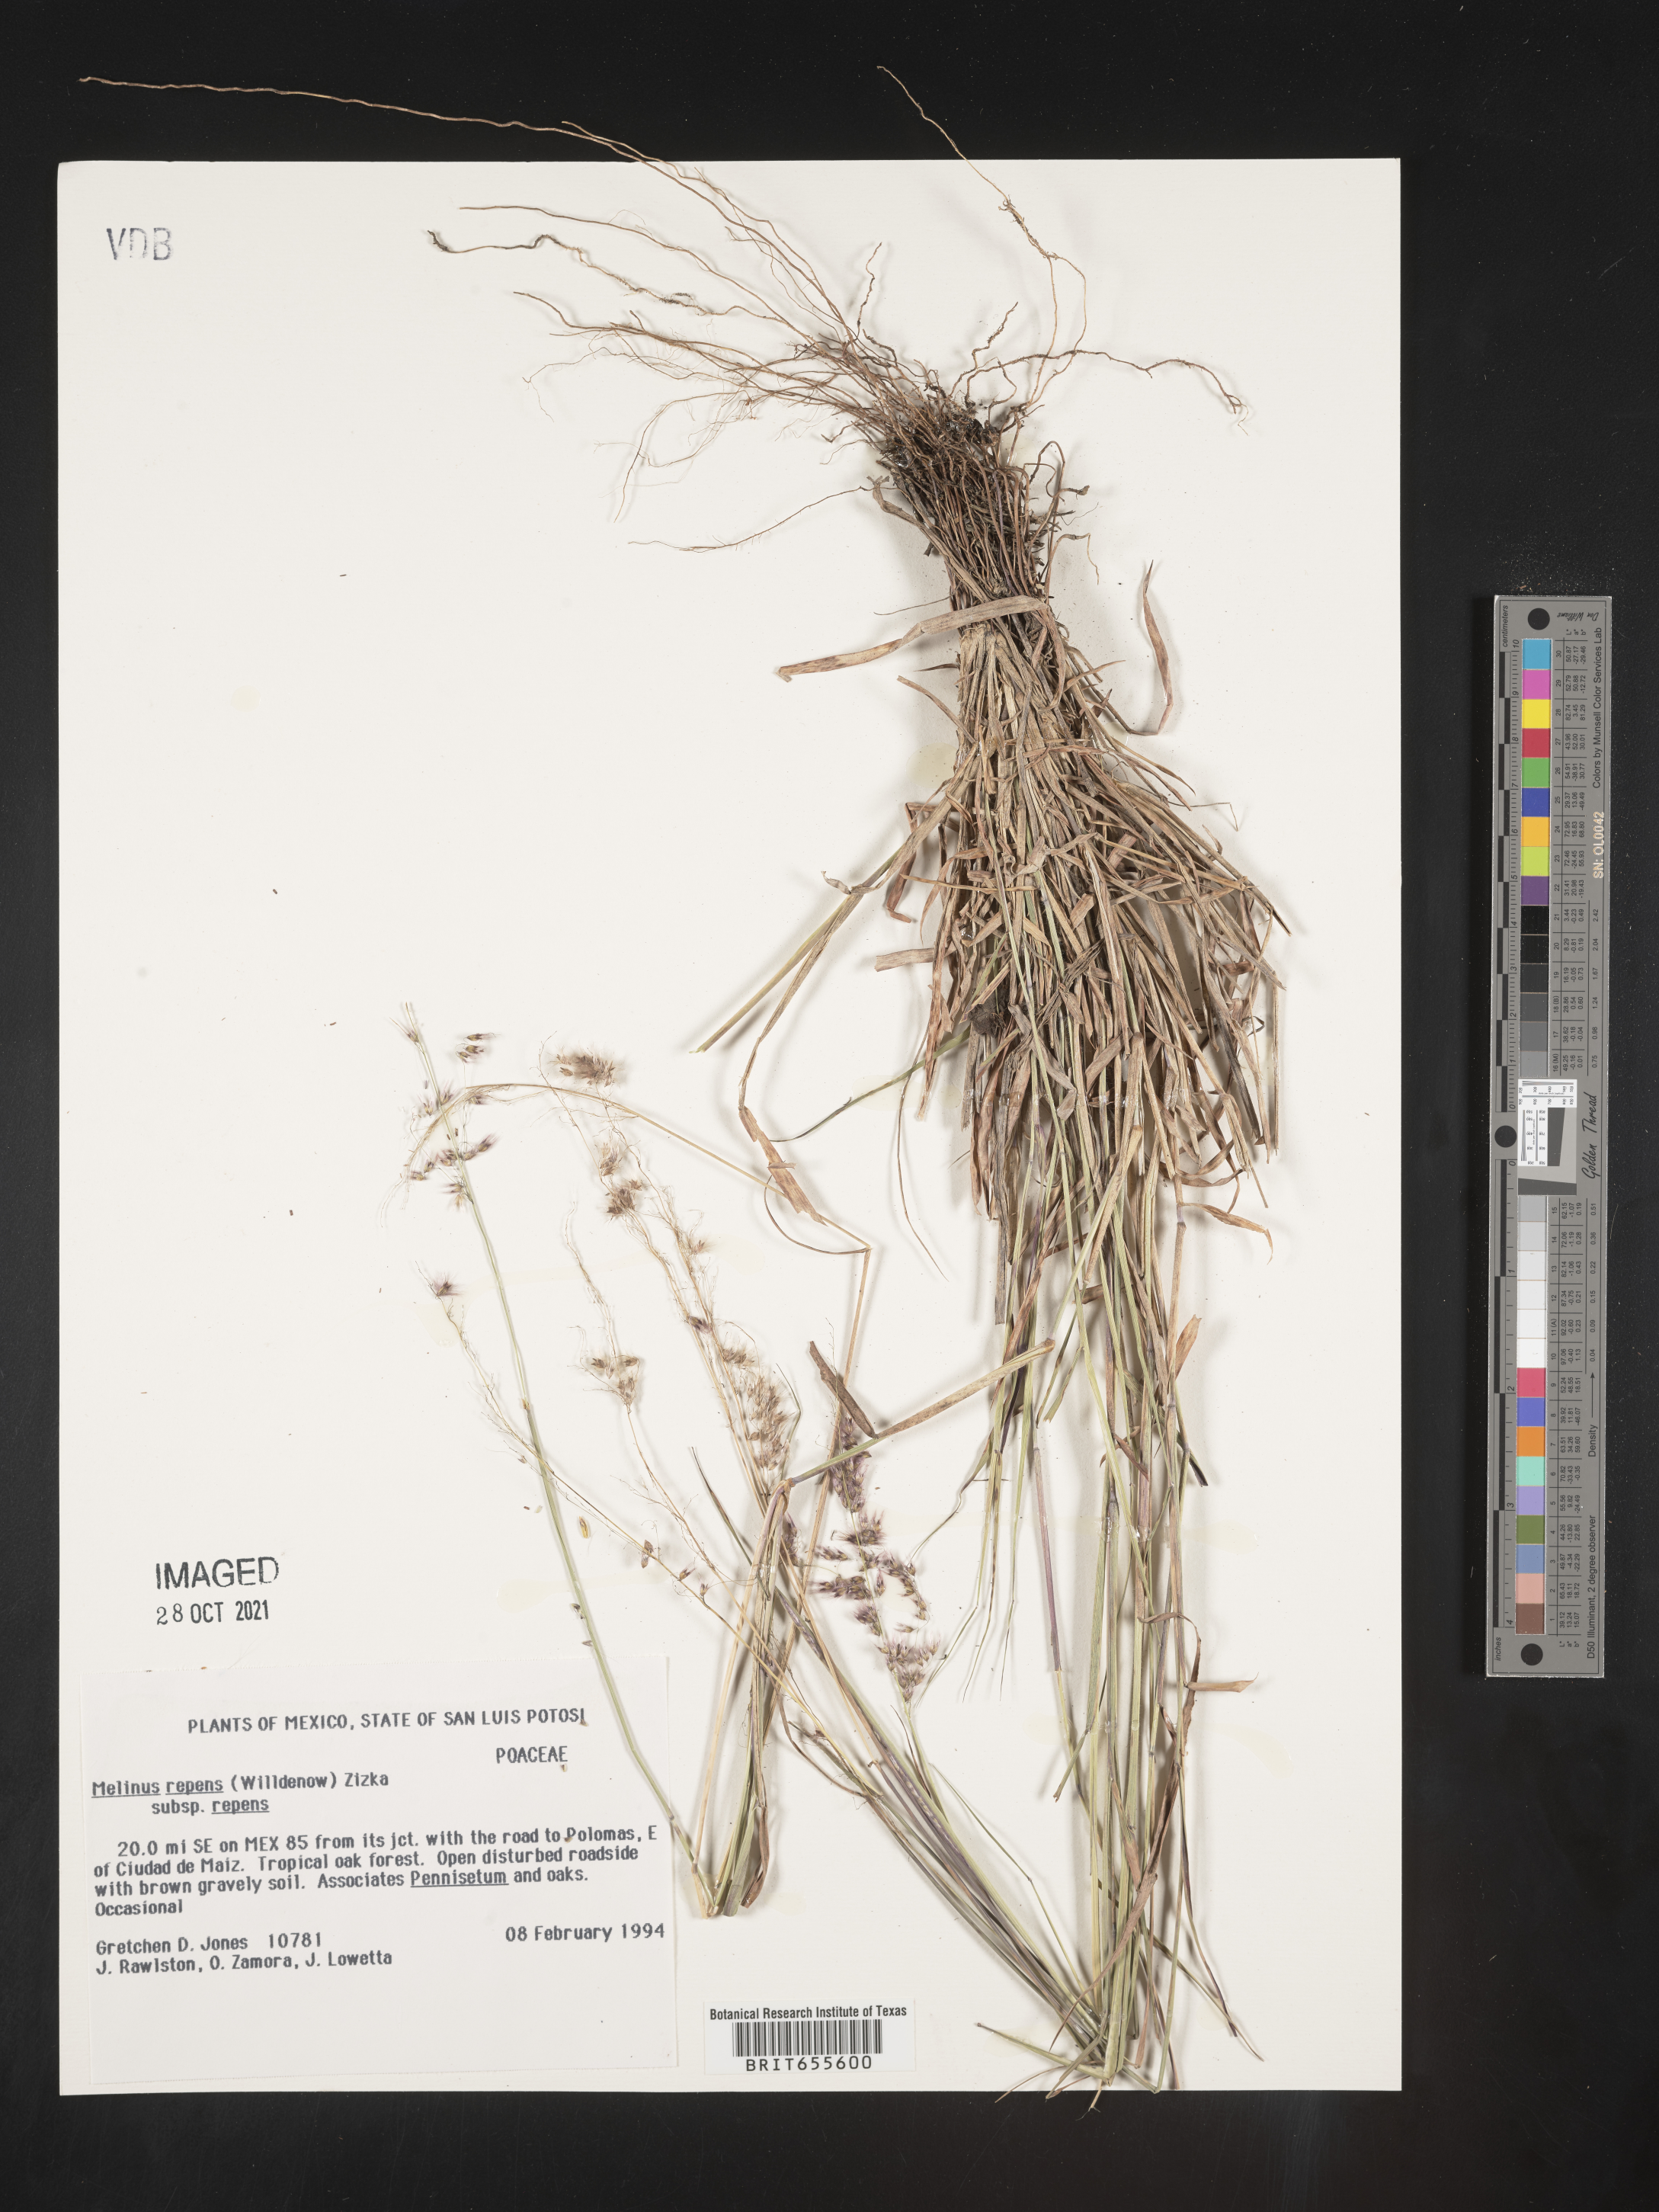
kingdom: Plantae
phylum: Tracheophyta
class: Liliopsida
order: Poales
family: Poaceae
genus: Melinis
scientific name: Melinis
